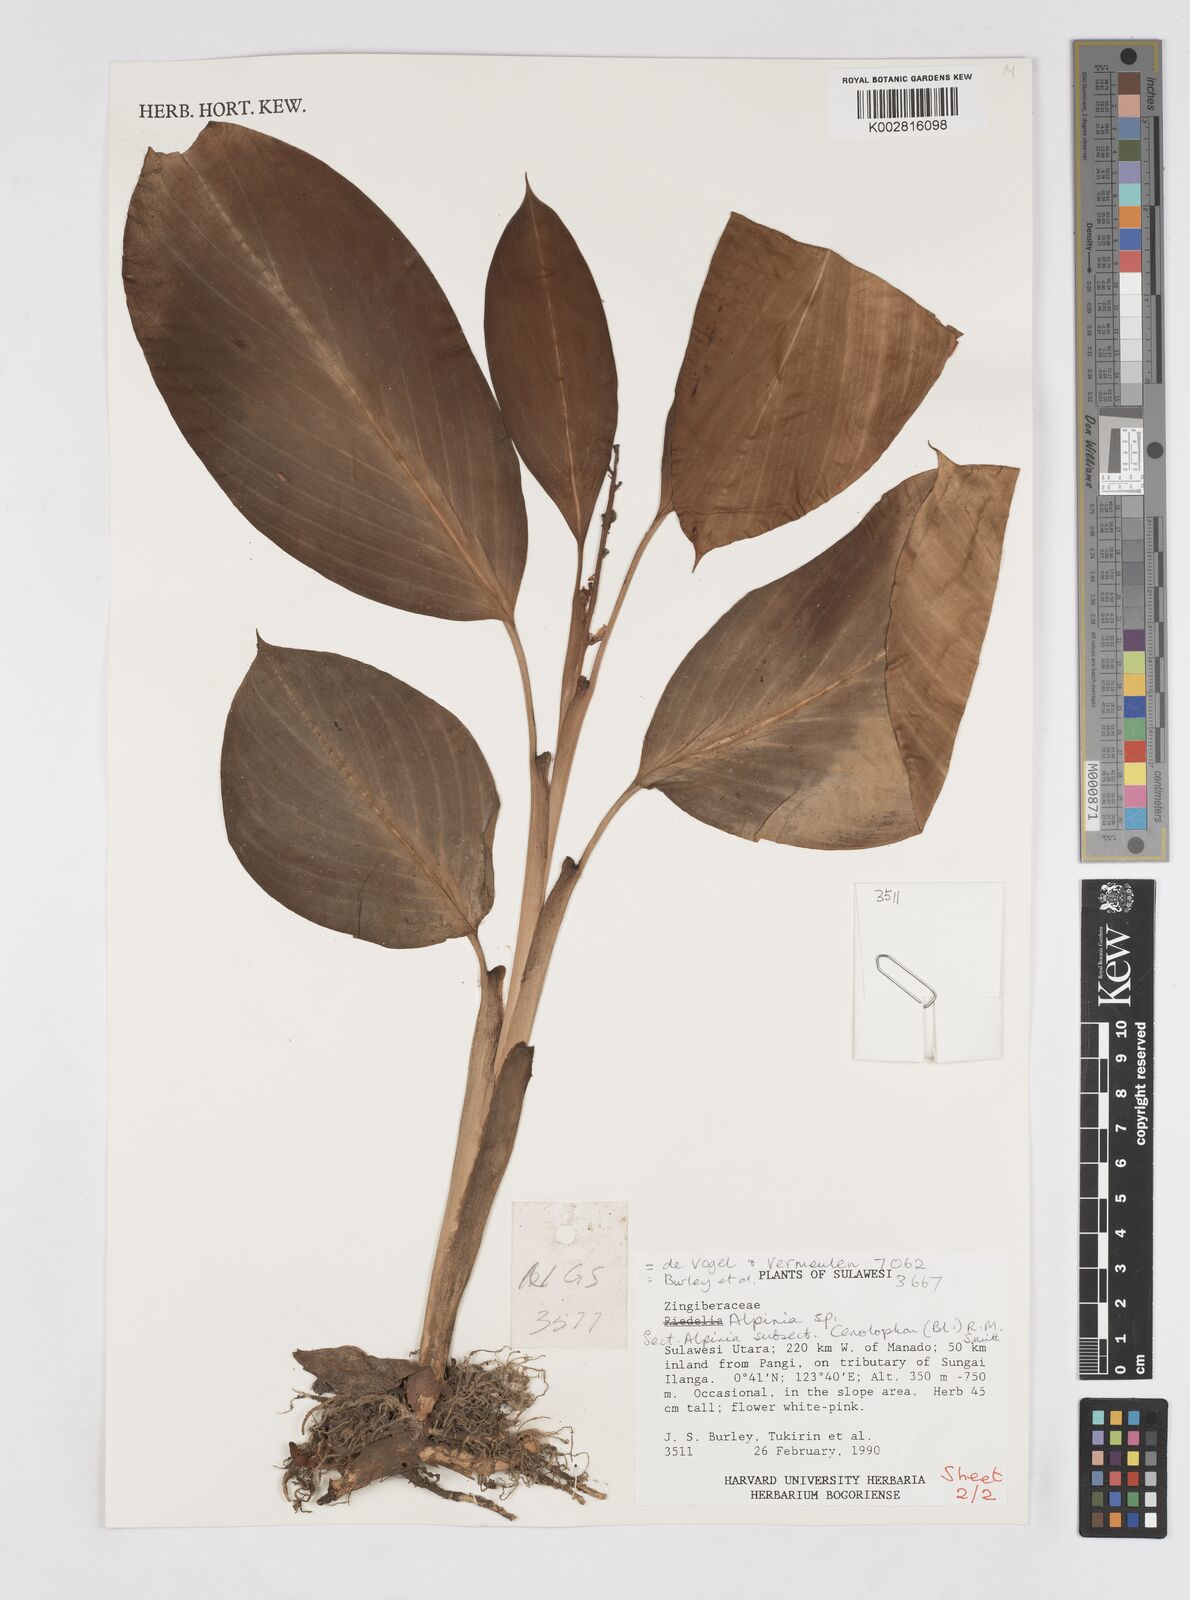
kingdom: Plantae
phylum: Tracheophyta
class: Liliopsida
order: Zingiberales
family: Zingiberaceae
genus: Alpinia
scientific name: Alpinia
